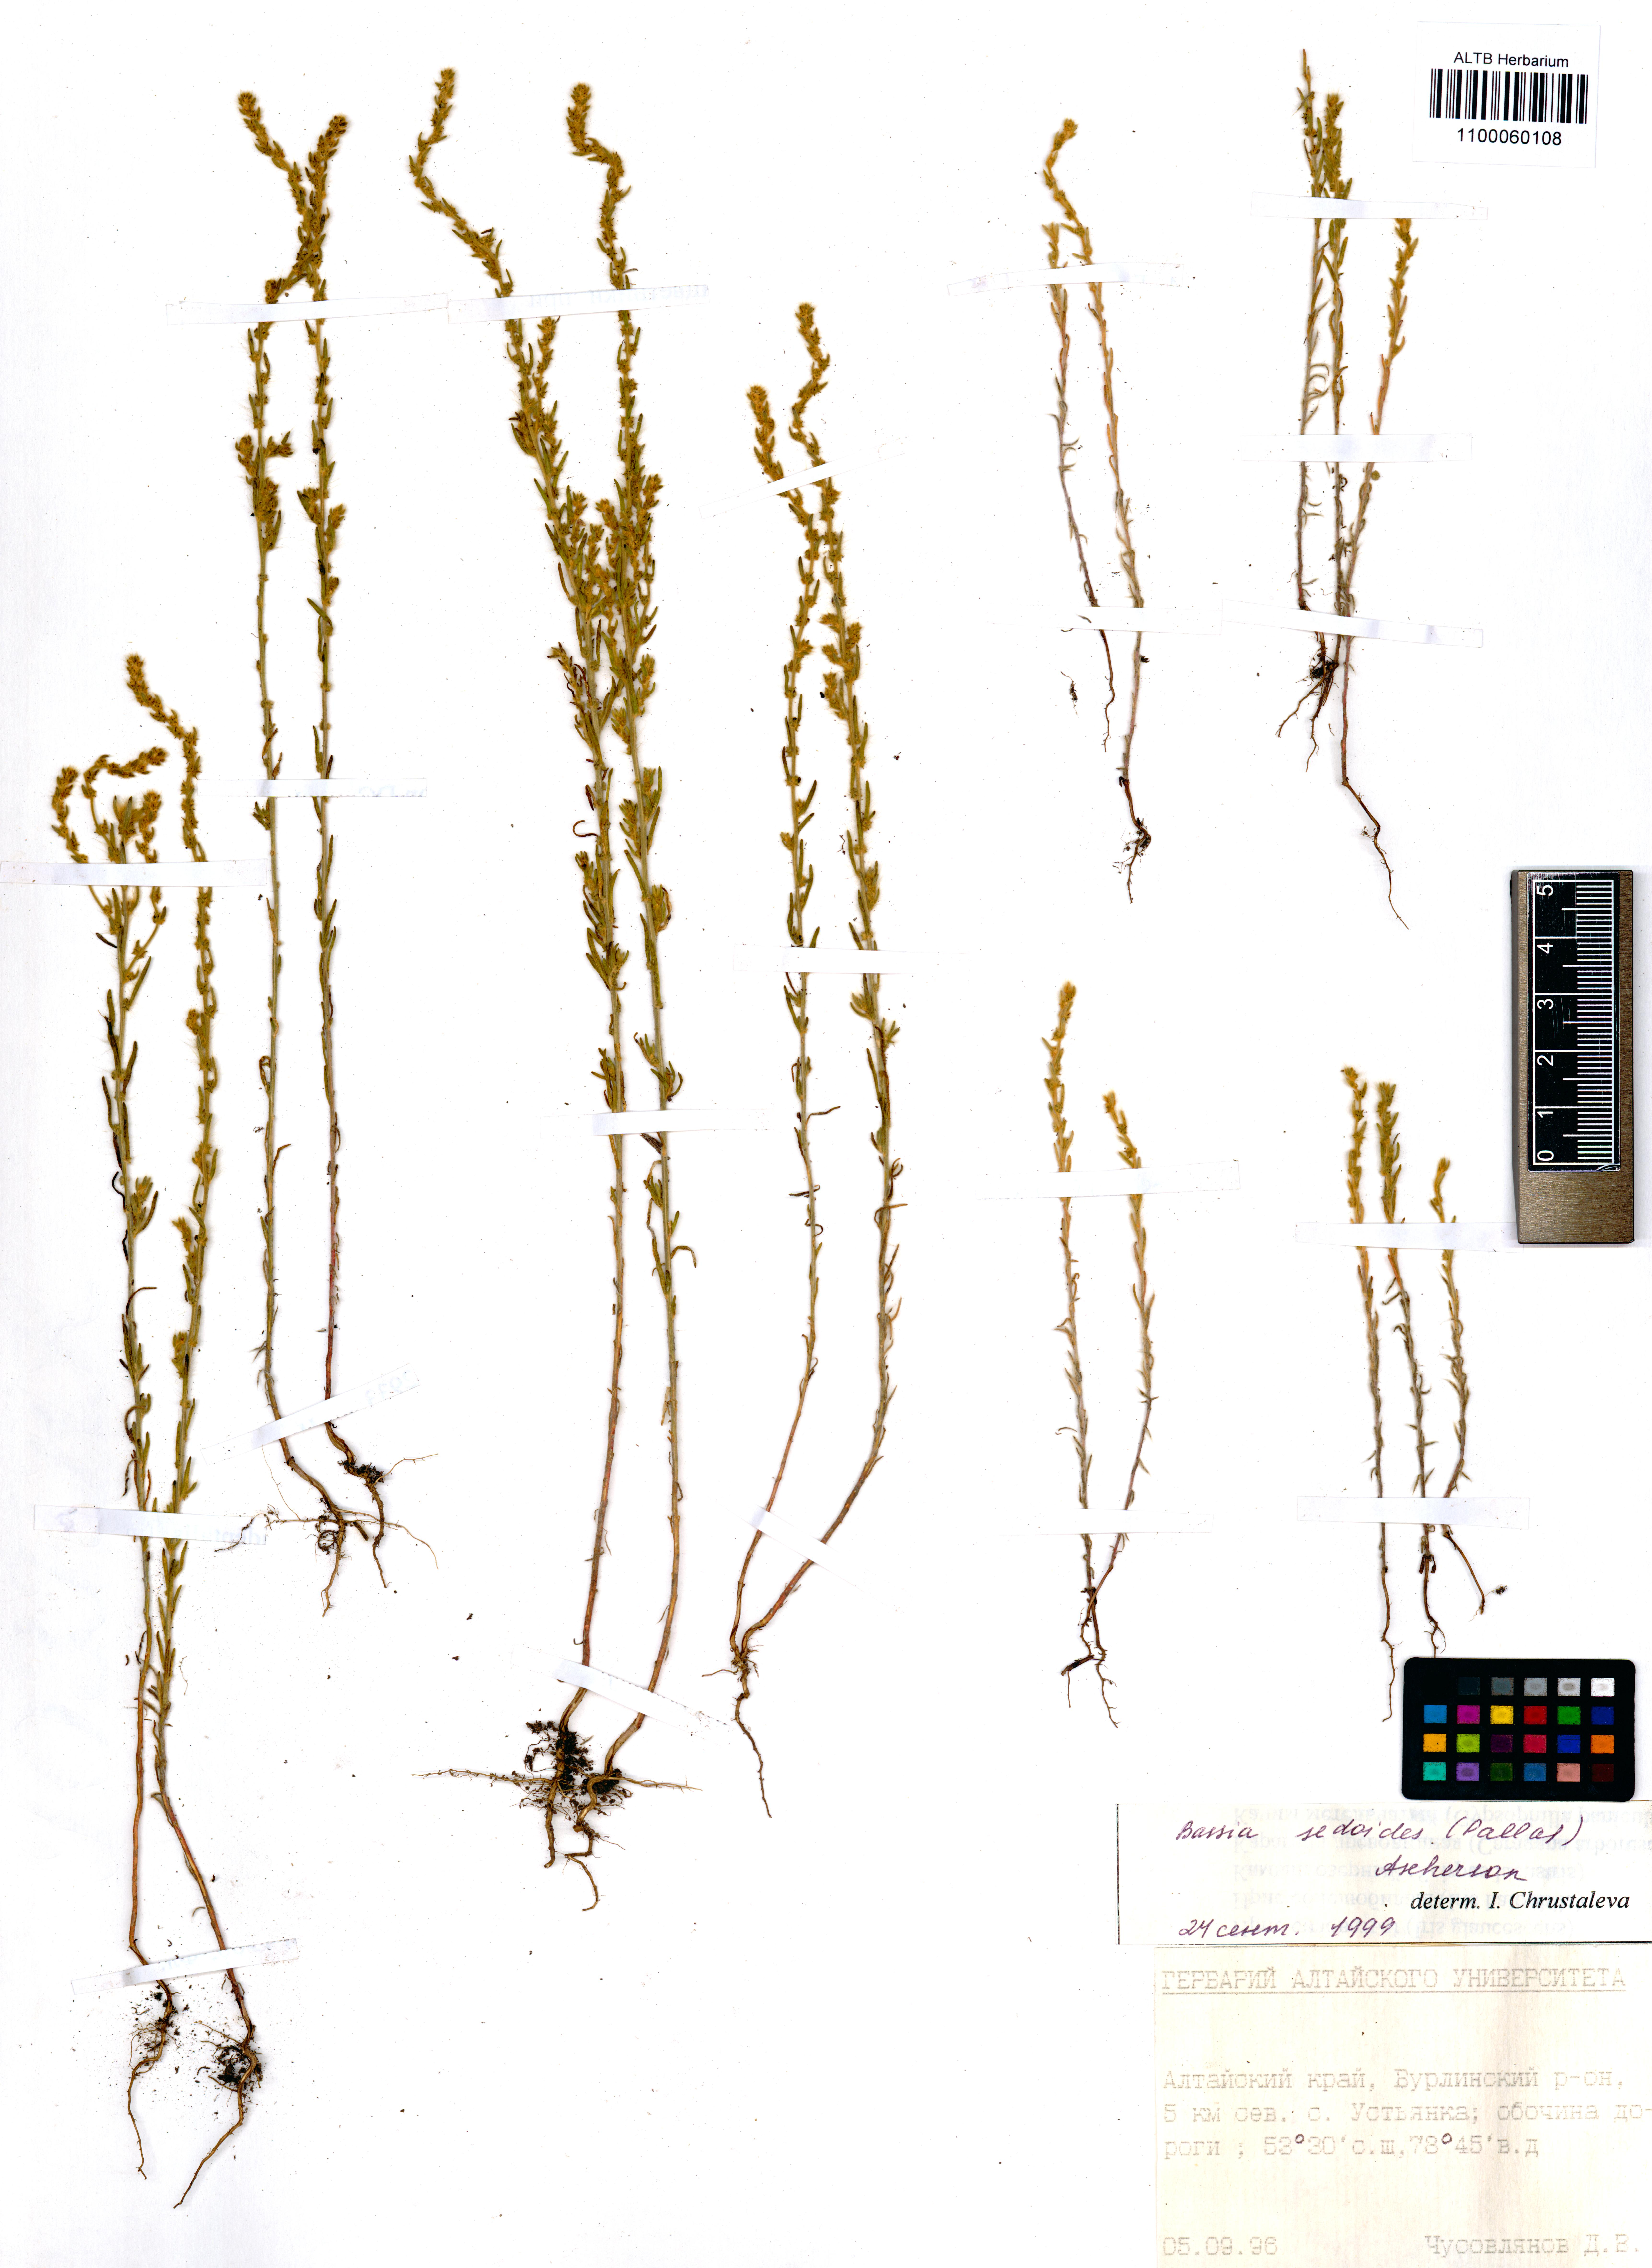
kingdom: Plantae
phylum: Tracheophyta
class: Magnoliopsida
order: Caryophyllales
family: Amaranthaceae
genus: Sedobassia
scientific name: Sedobassia sedoides
